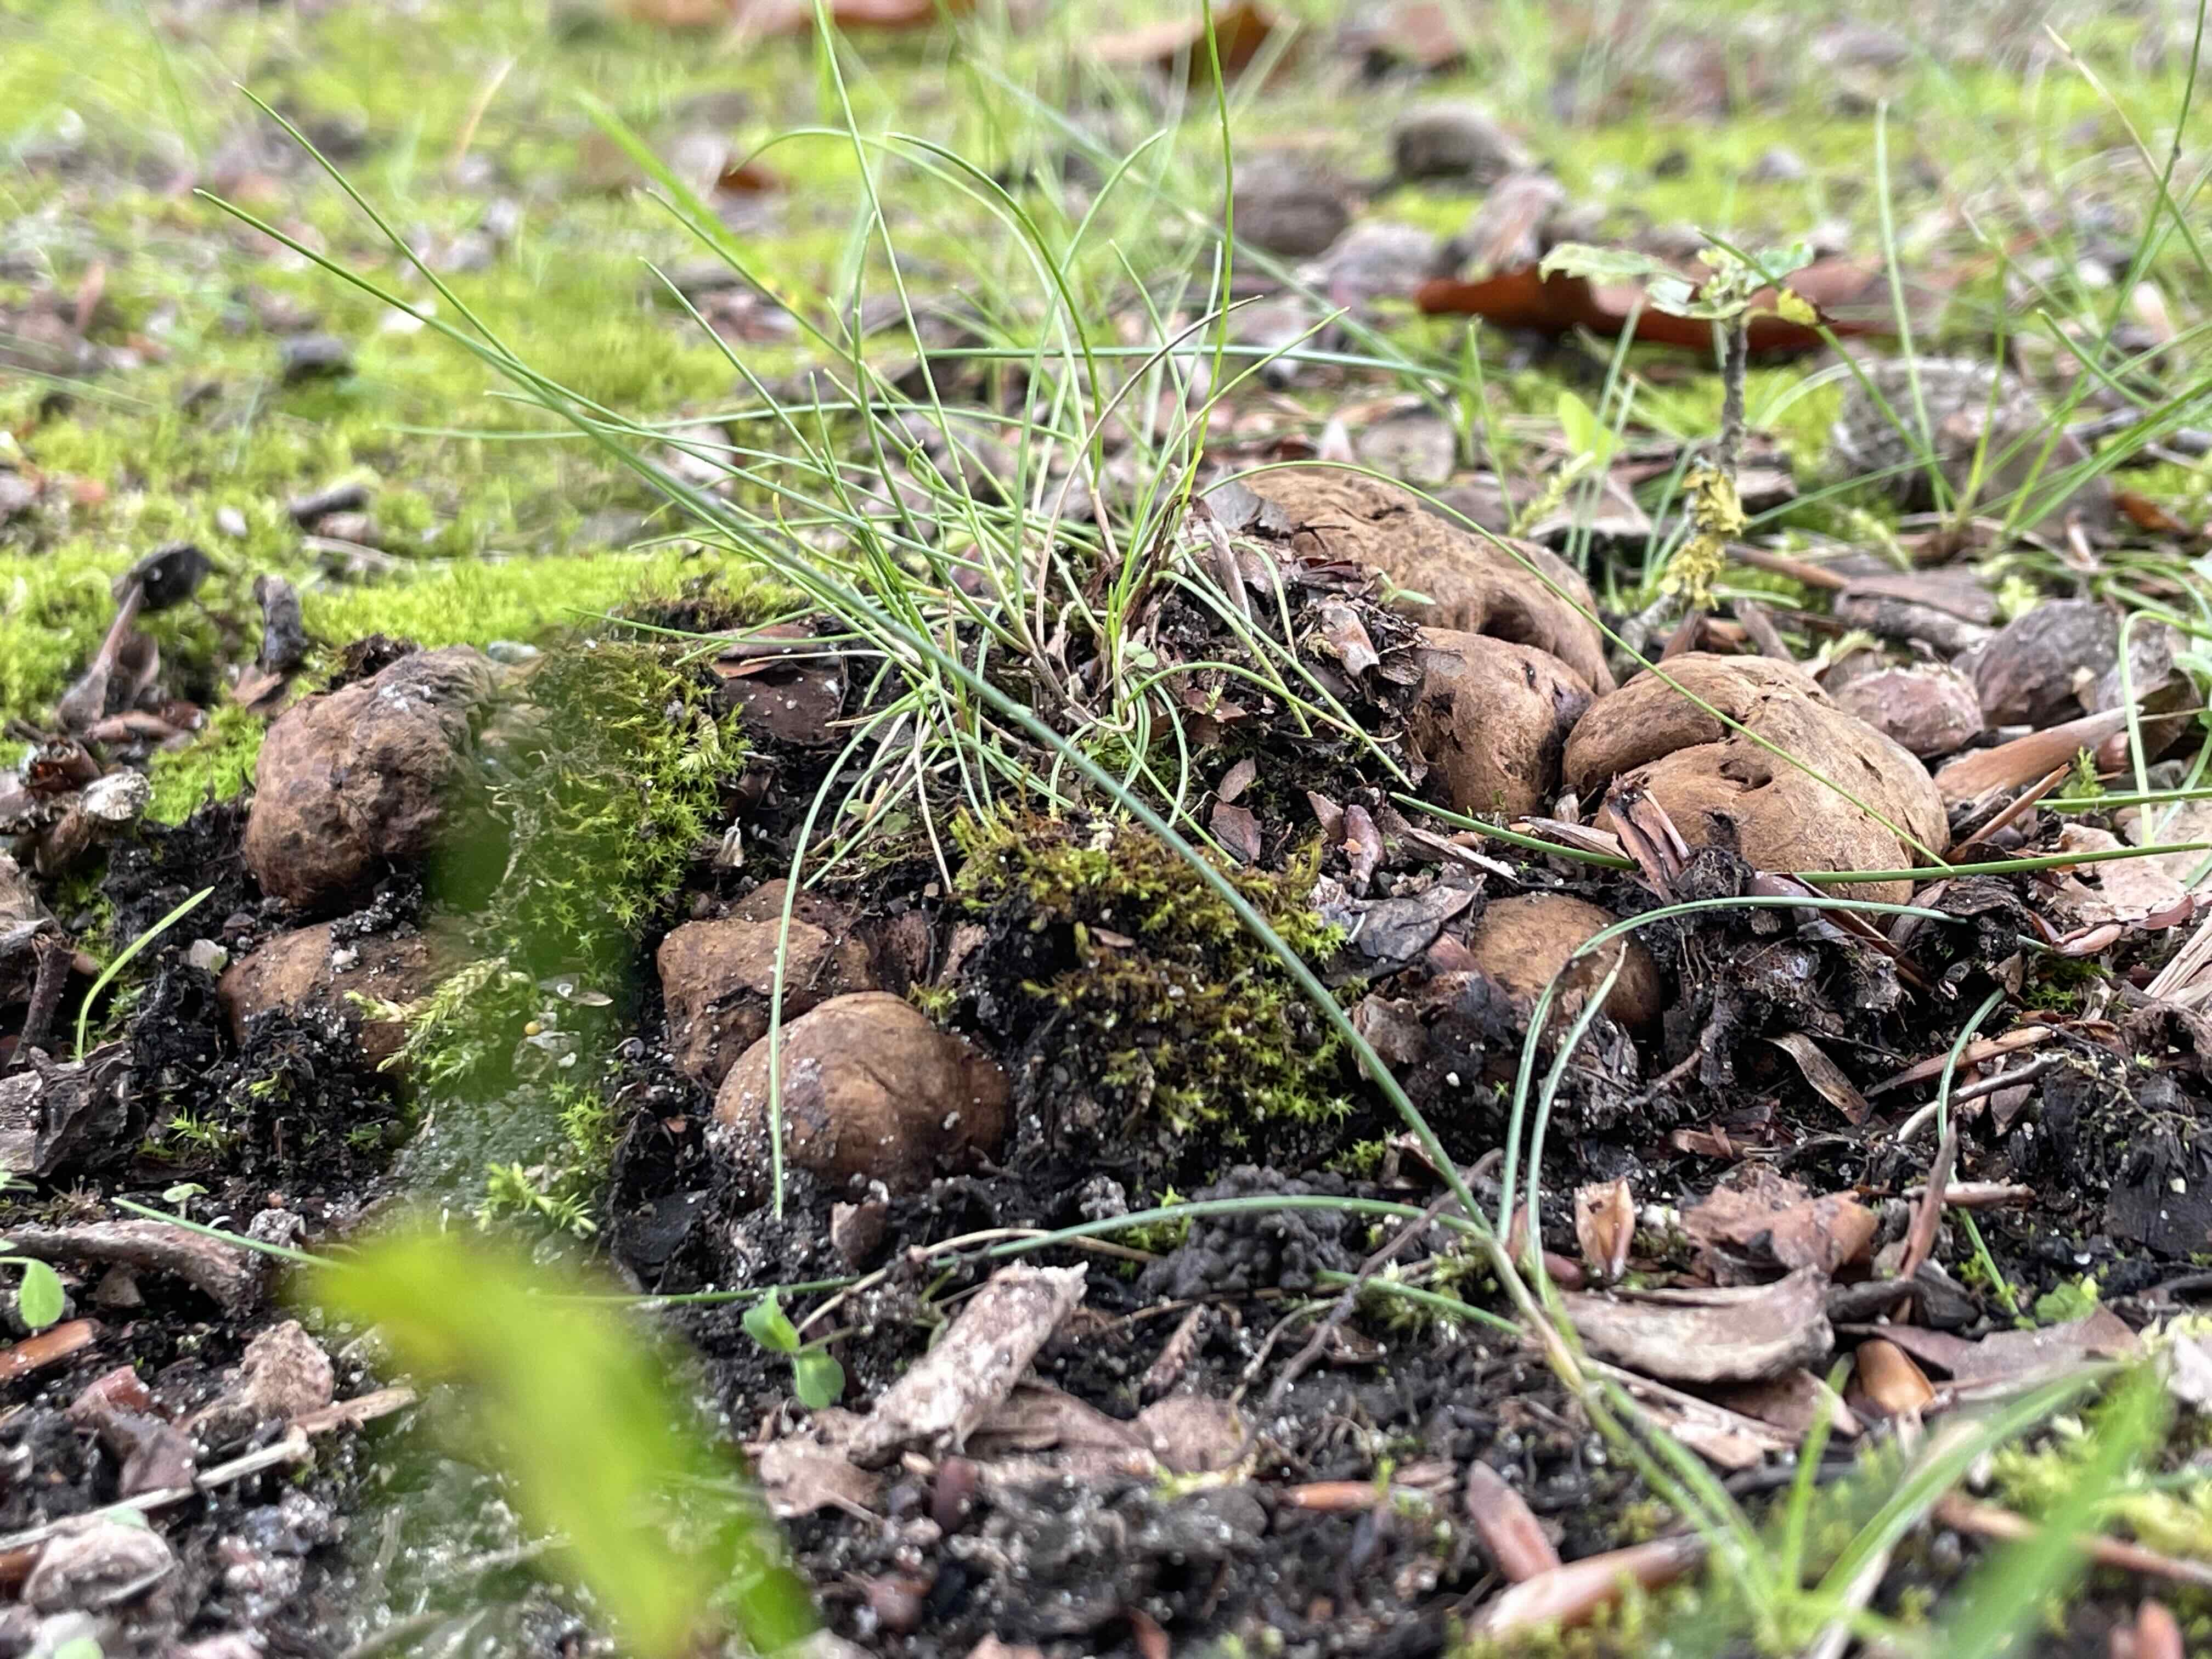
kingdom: Fungi
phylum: Basidiomycota
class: Agaricomycetes
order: Boletales
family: Paxillaceae
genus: Melanogaster
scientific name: Melanogaster broomeanus
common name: broget slimtrøffel
